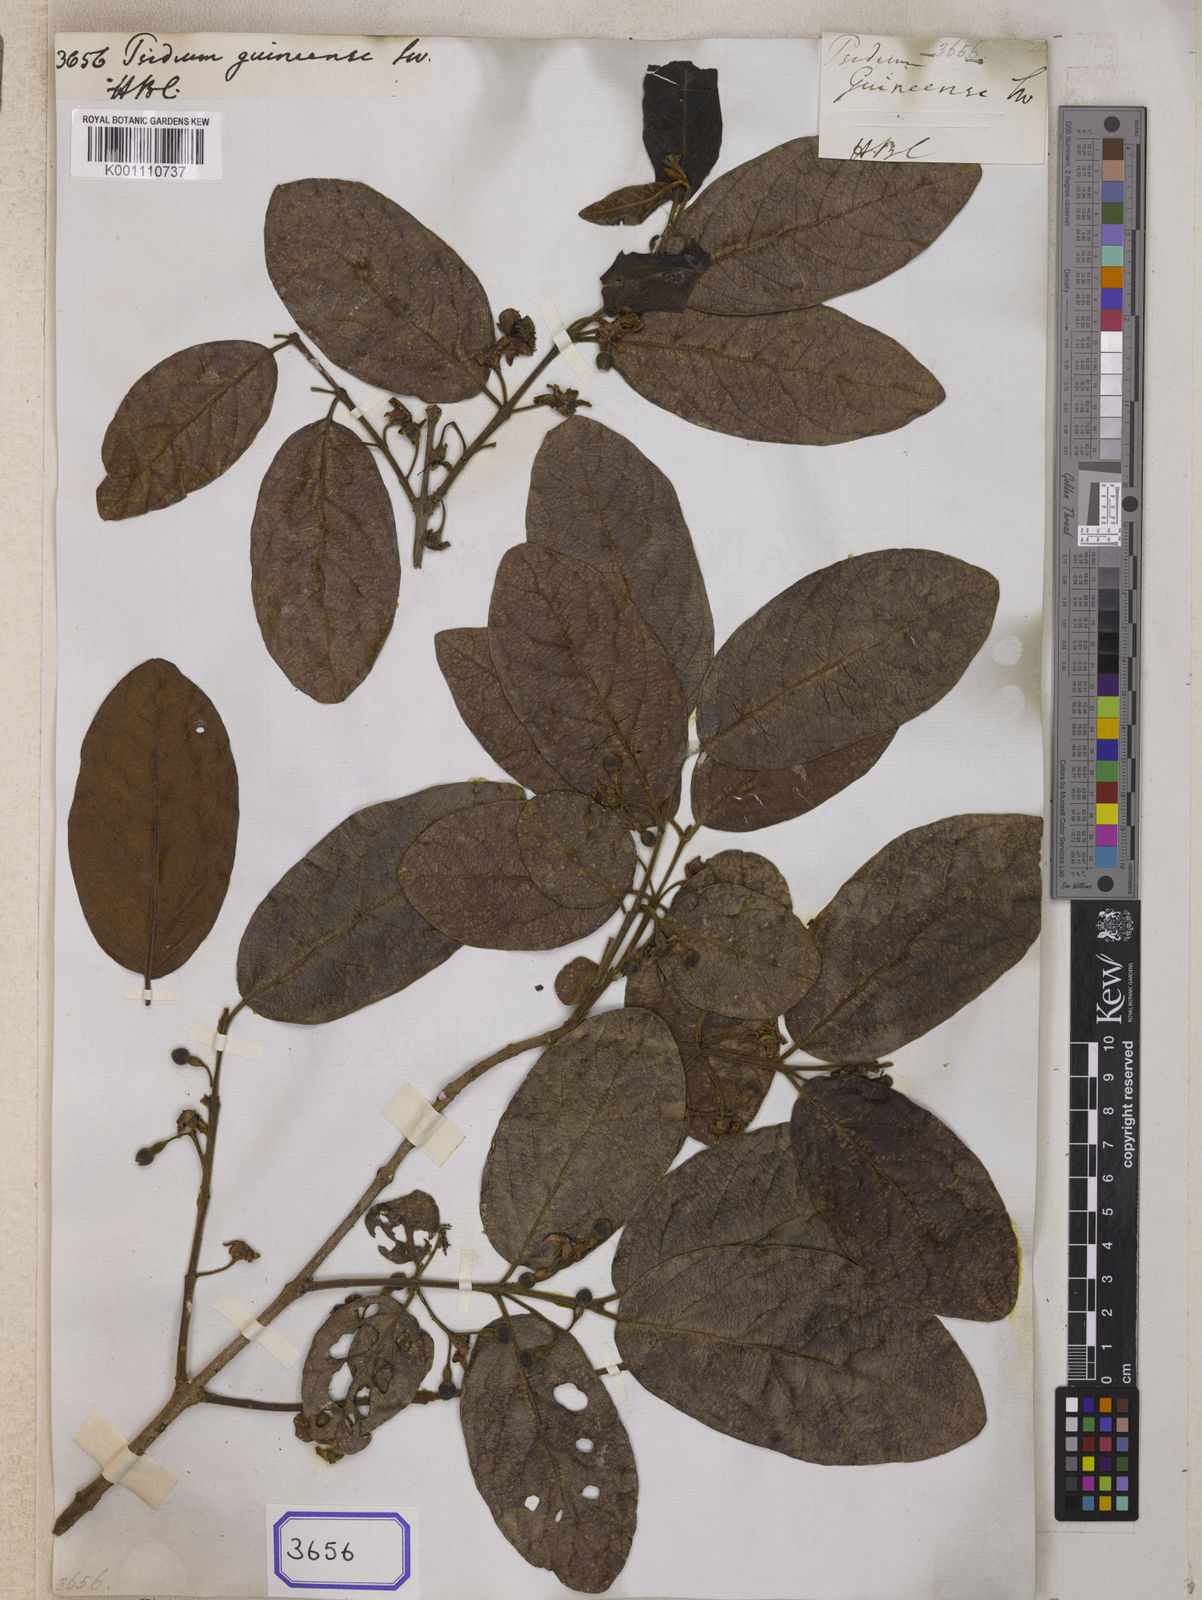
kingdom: Plantae
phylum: Tracheophyta
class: Magnoliopsida
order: Myrtales
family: Myrtaceae
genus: Psidium
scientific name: Psidium guineense
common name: Brazilian guava
